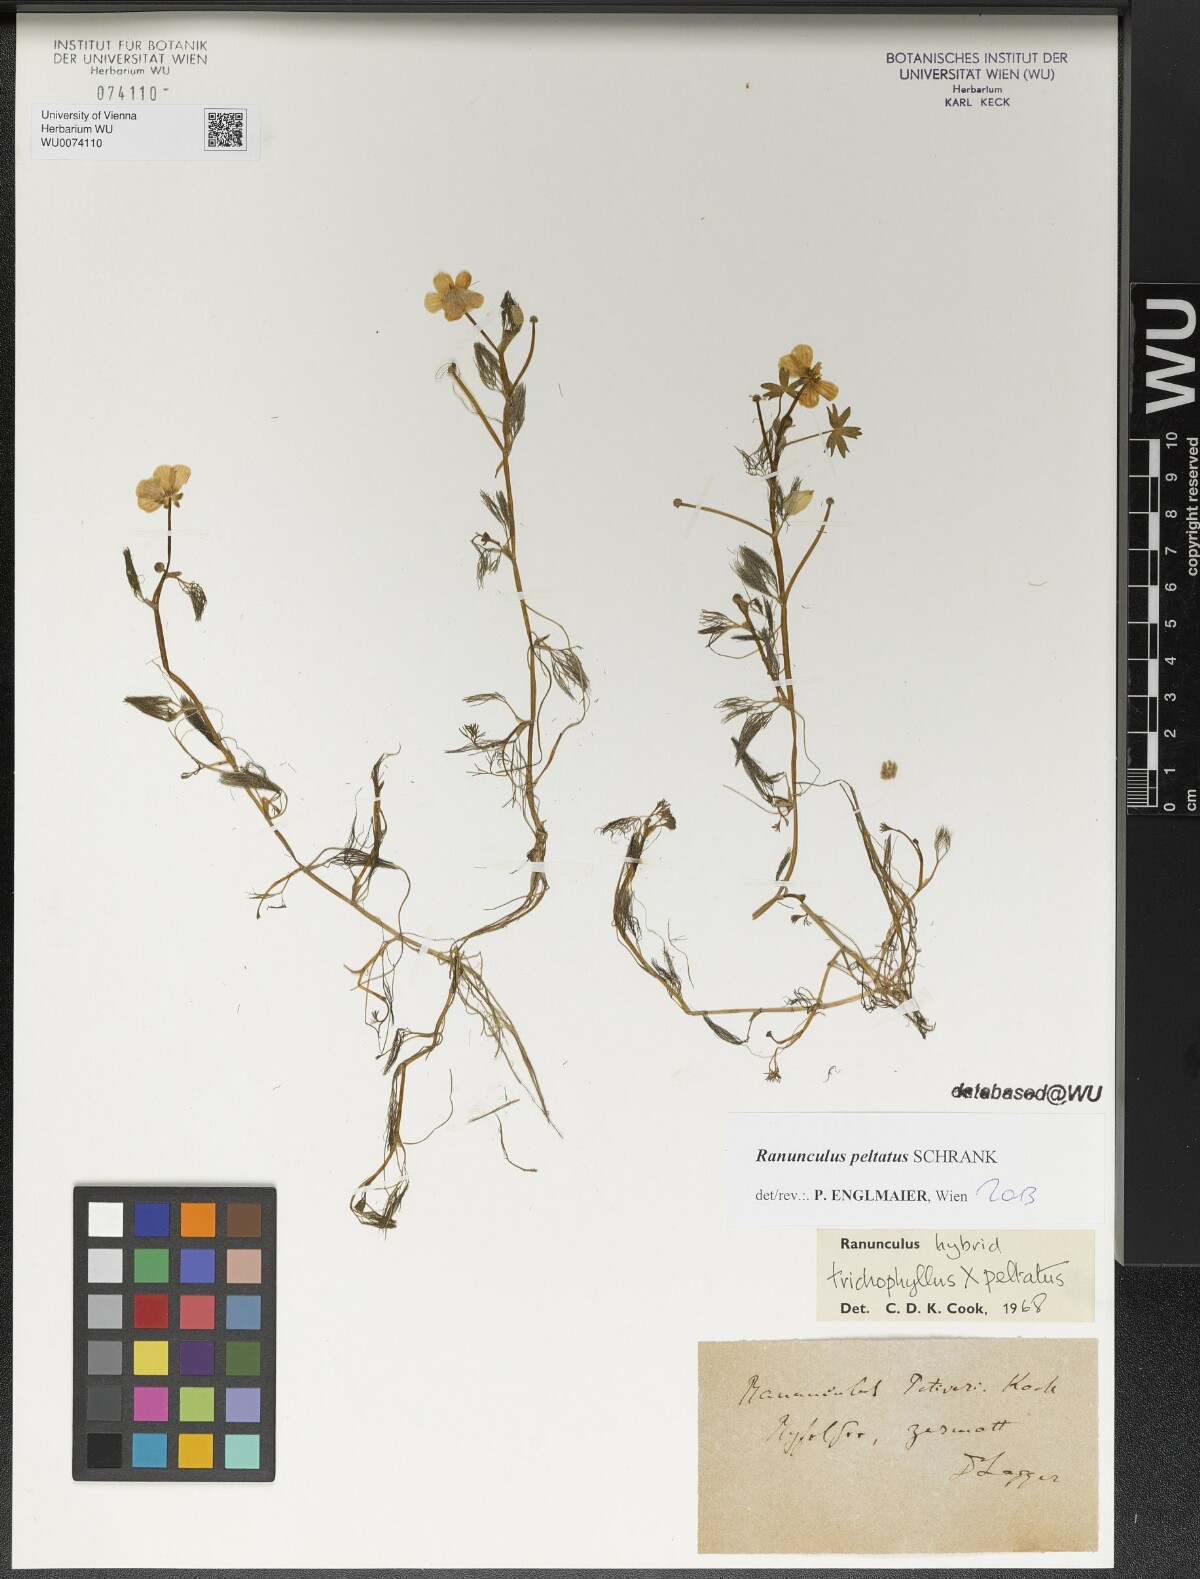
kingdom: Plantae
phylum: Tracheophyta
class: Magnoliopsida
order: Ranunculales
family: Ranunculaceae
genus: Ranunculus
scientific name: Ranunculus peltatus
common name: Pond water-crowfoot
